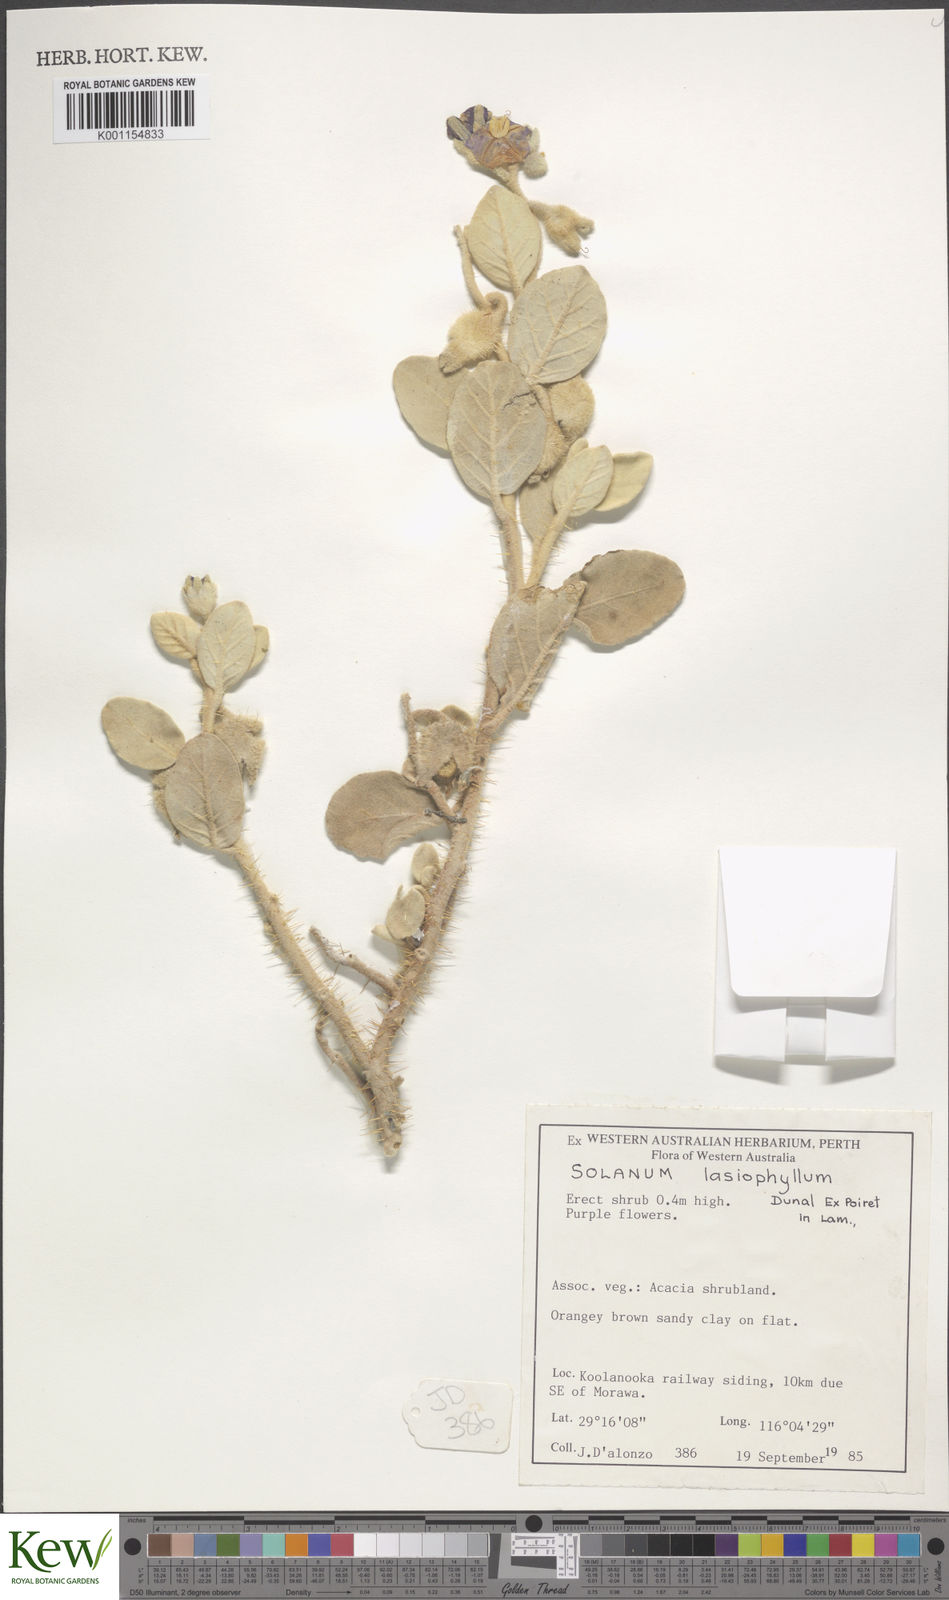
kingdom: Plantae
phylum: Tracheophyta
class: Magnoliopsida
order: Solanales
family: Solanaceae
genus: Solanum
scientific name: Solanum lasiophyllum
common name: Flannelbush
